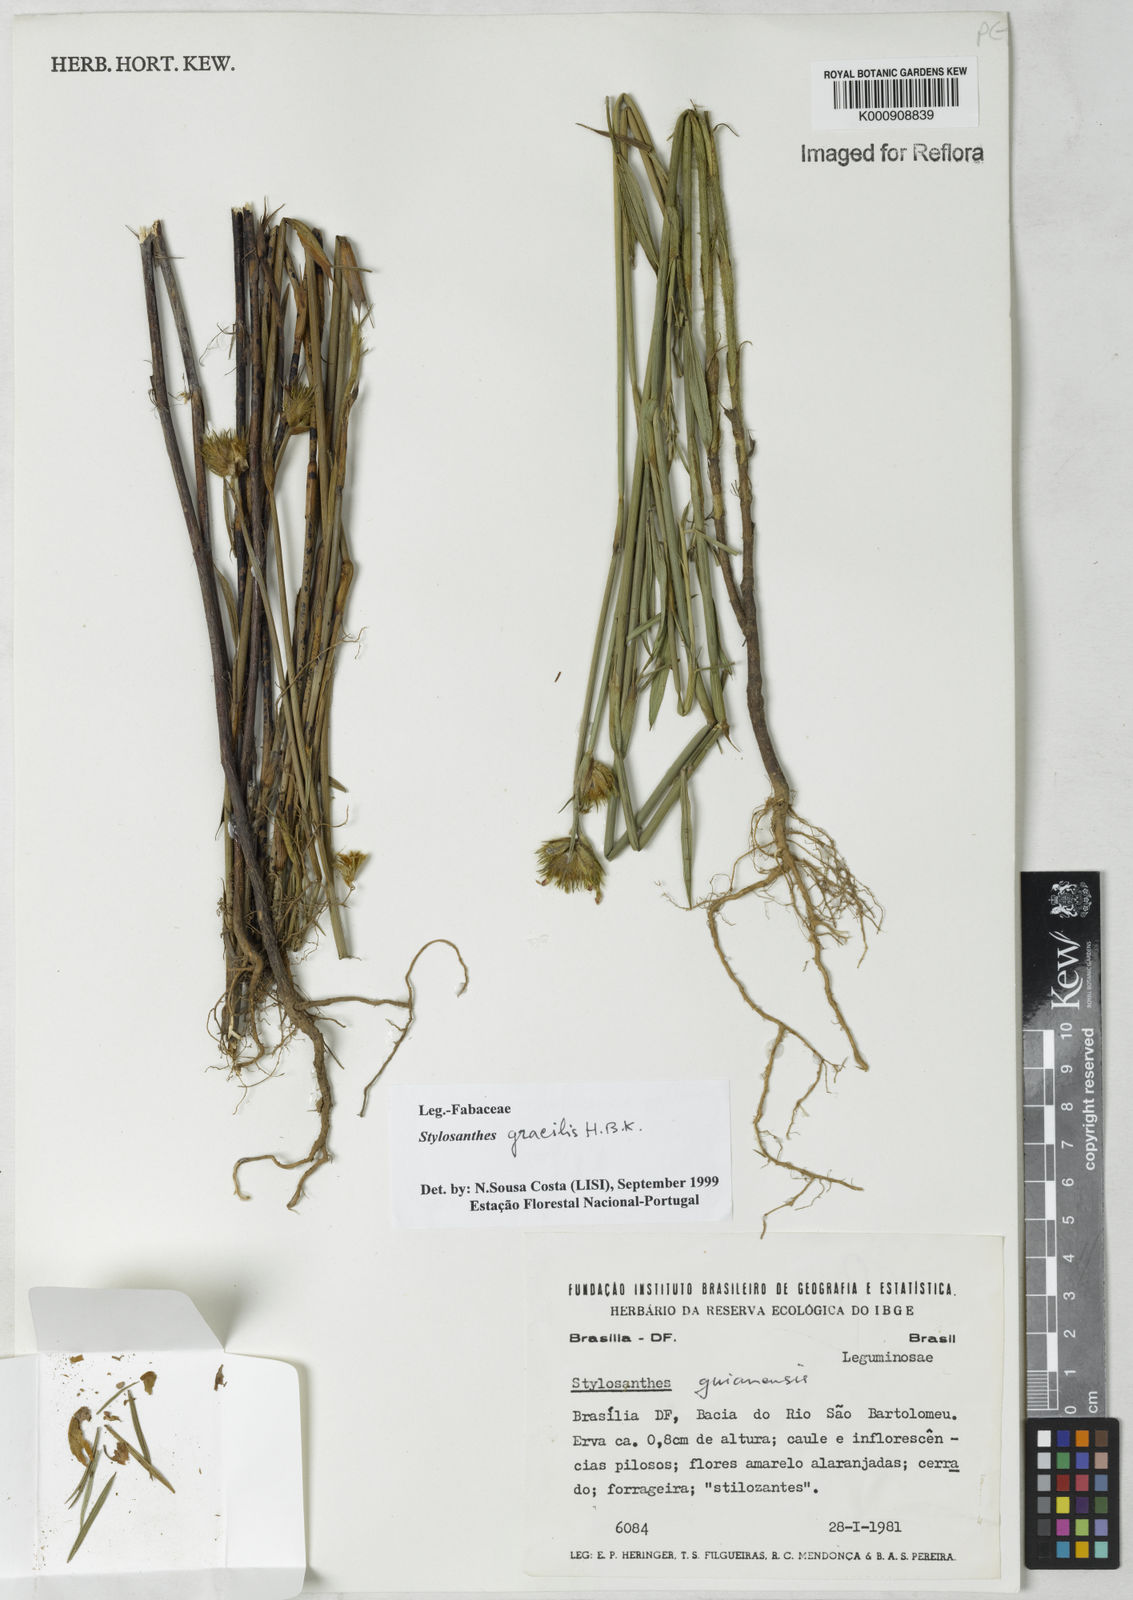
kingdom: Plantae
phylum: Tracheophyta
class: Magnoliopsida
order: Fabales
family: Fabaceae
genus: Stylosanthes
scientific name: Stylosanthes guianensis
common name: Pencil flower
